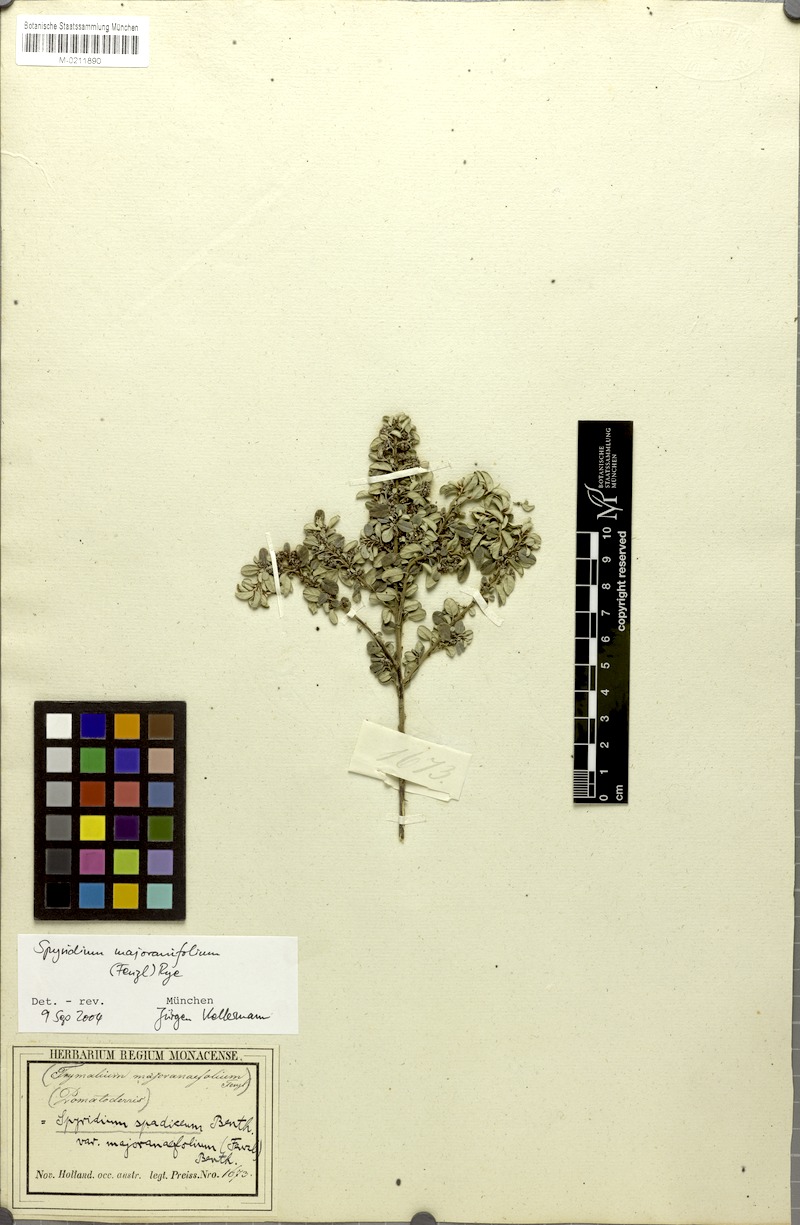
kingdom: Plantae
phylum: Tracheophyta
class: Magnoliopsida
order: Rosales
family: Rhamnaceae
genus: Spyridium
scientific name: Spyridium majoranifolium
